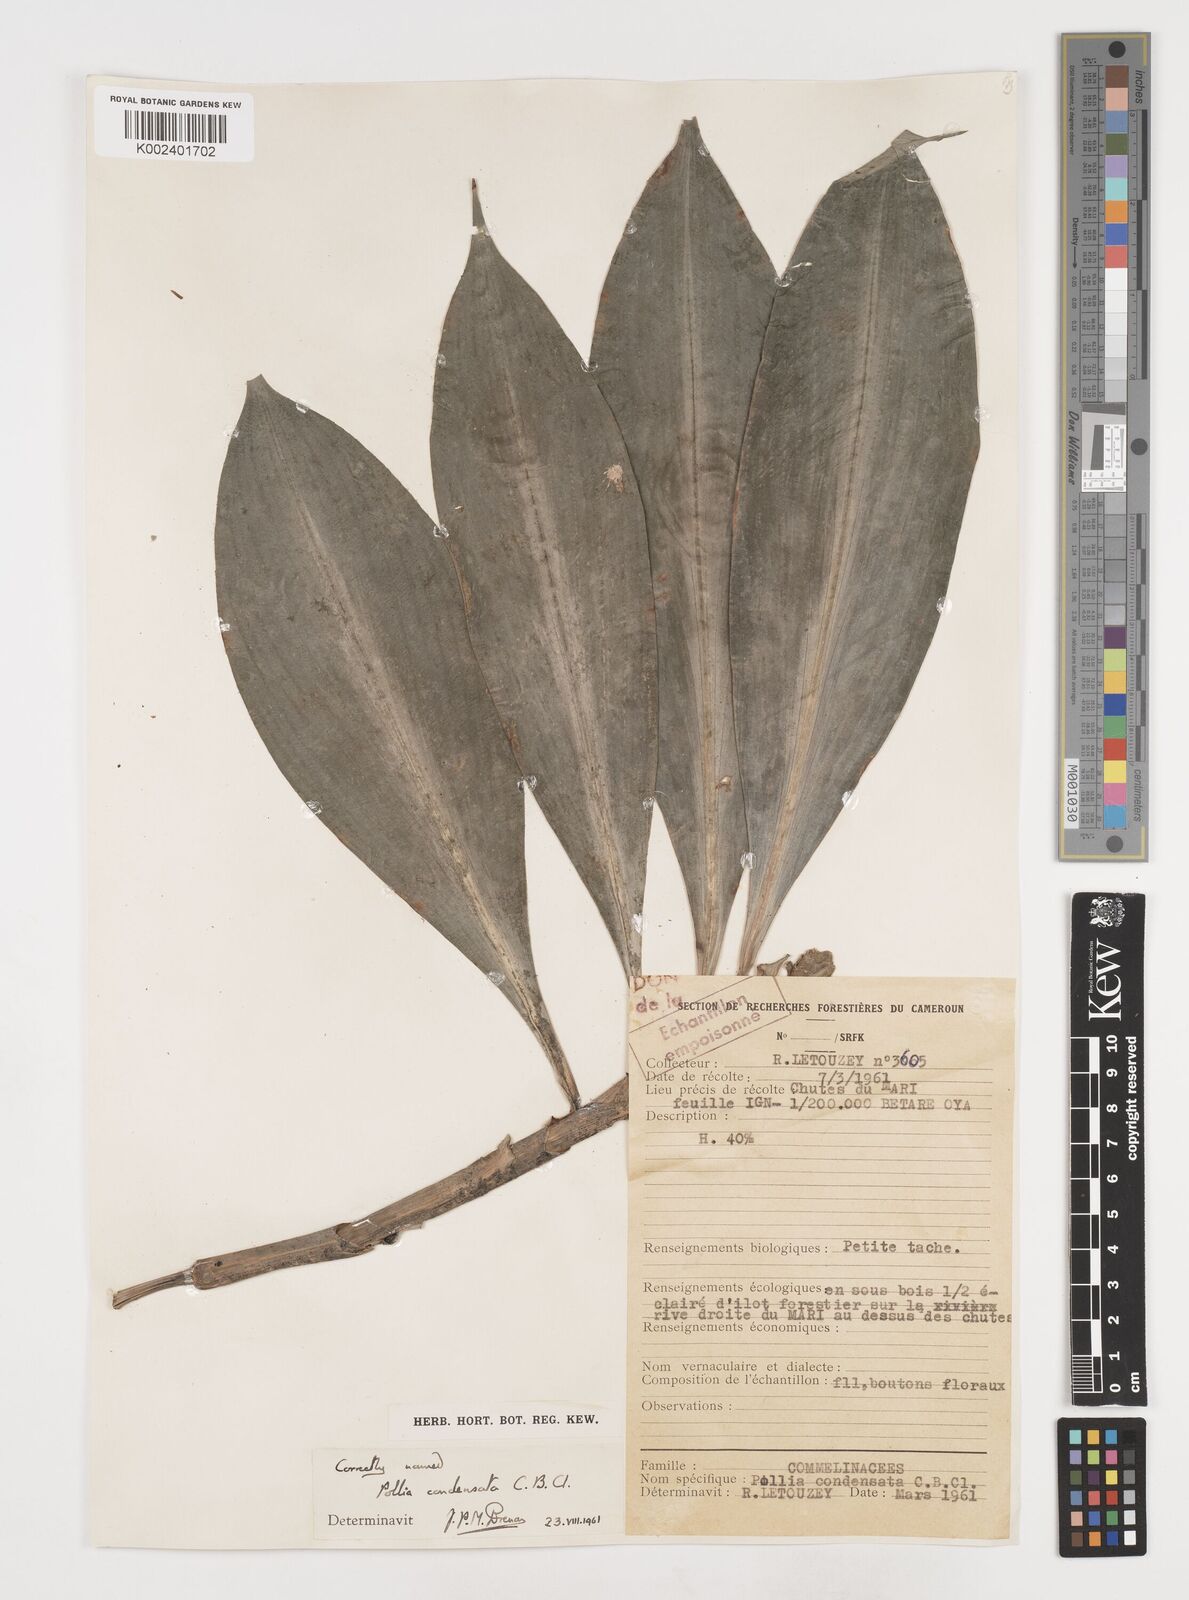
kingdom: Plantae
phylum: Tracheophyta
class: Liliopsida
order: Commelinales
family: Commelinaceae
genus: Pollia
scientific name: Pollia condensata
